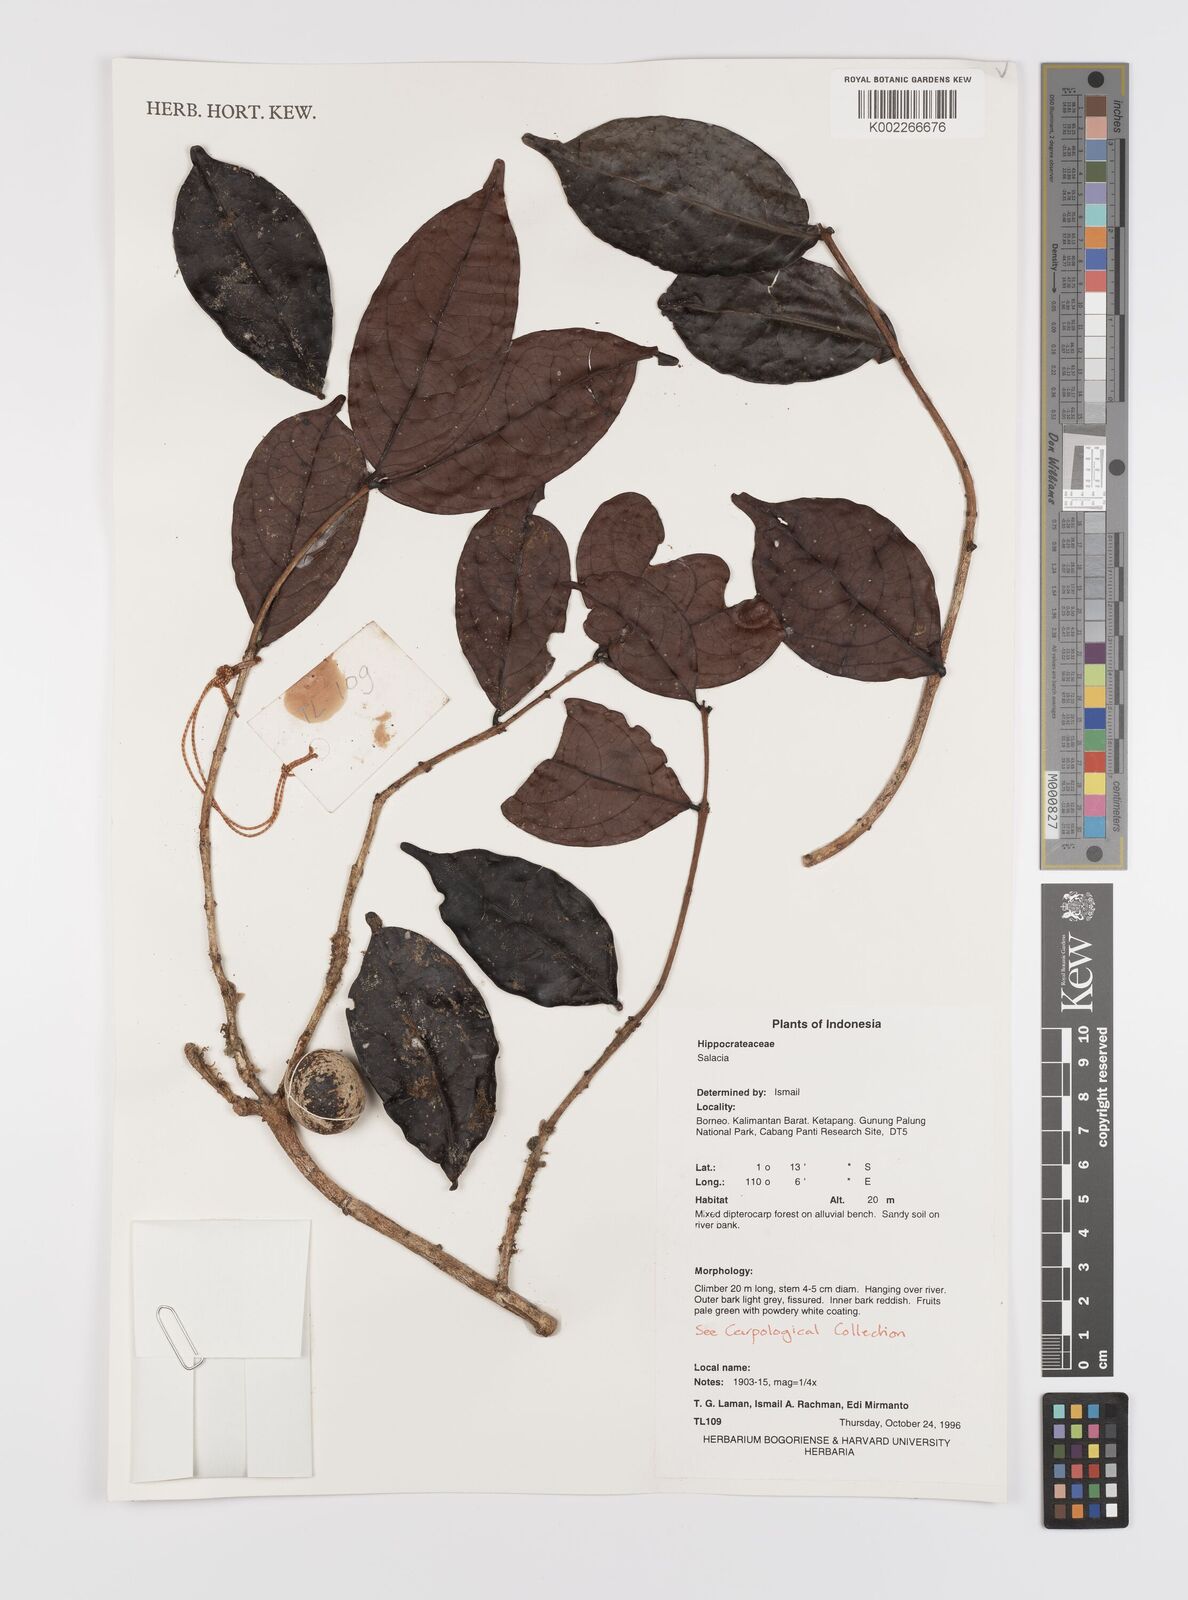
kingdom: Plantae
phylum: Tracheophyta
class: Magnoliopsida
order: Celastrales
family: Celastraceae
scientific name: Celastraceae
